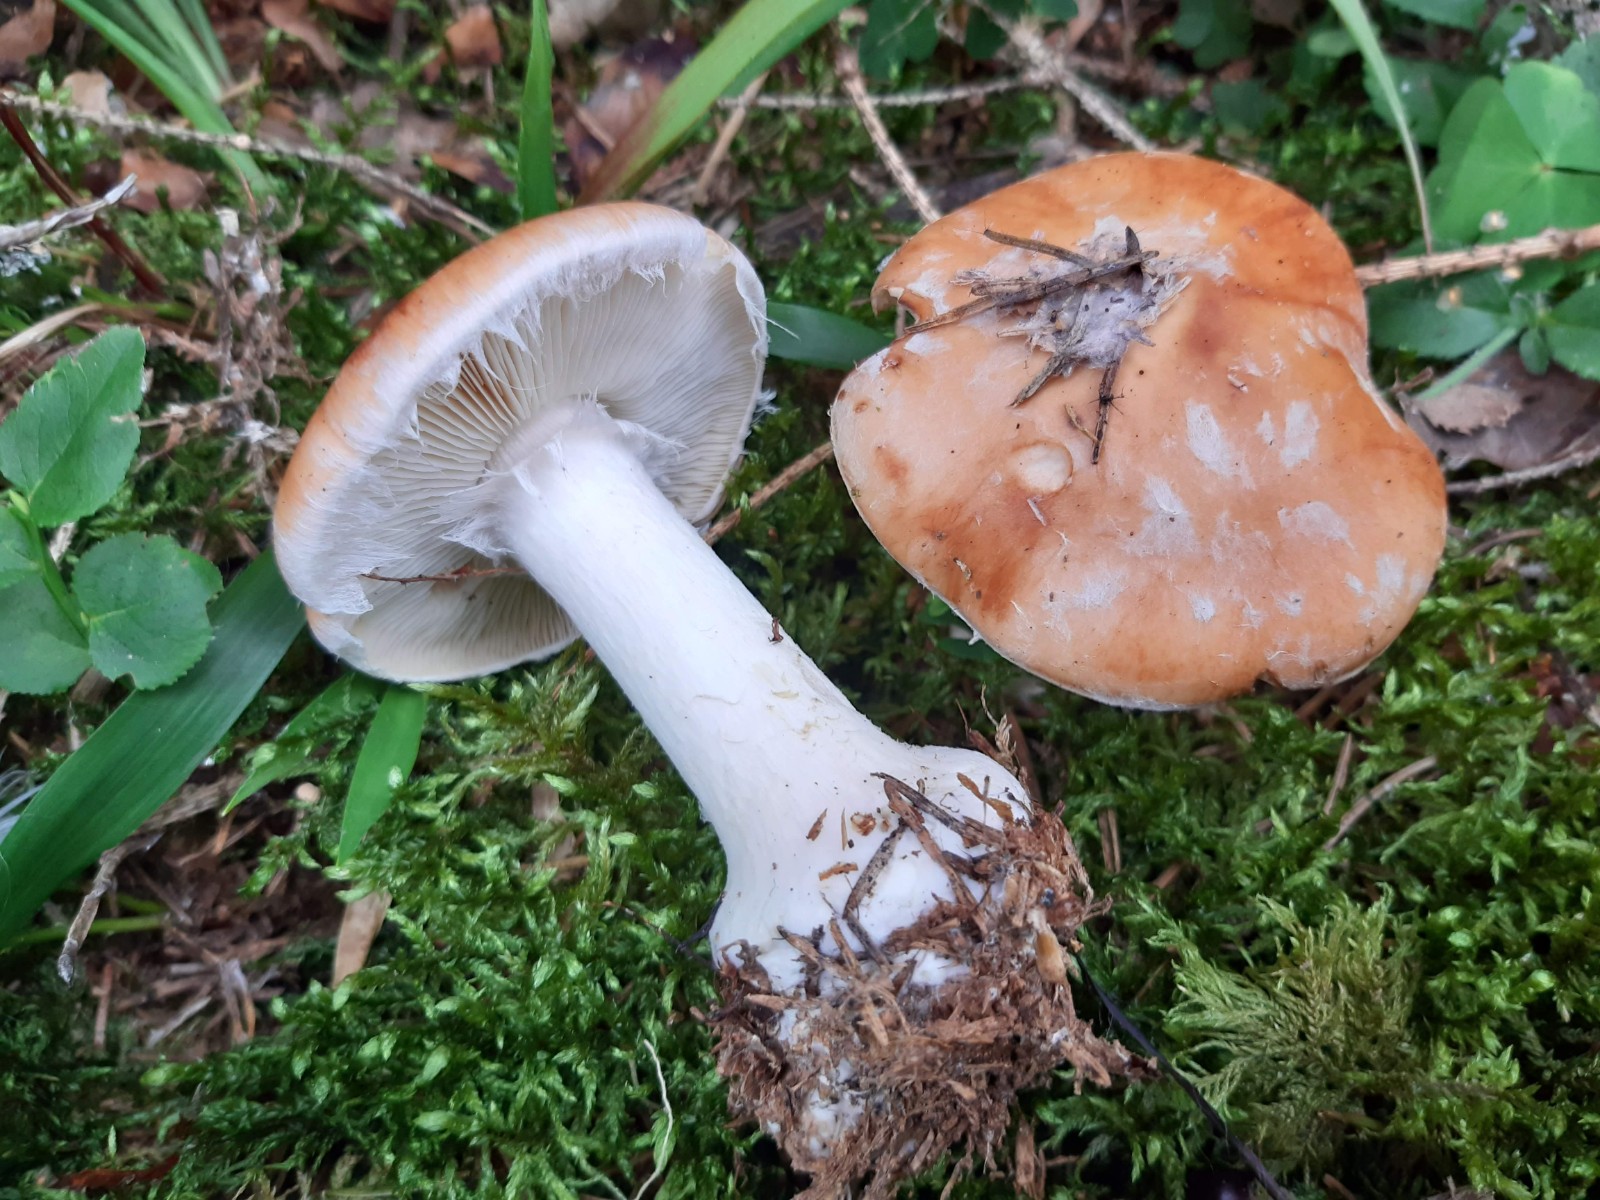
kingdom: Fungi
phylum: Basidiomycota
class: Agaricomycetes
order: Agaricales
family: Tricholomataceae
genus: Leucocortinarius
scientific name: Leucocortinarius bulbiger
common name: klumpfod
